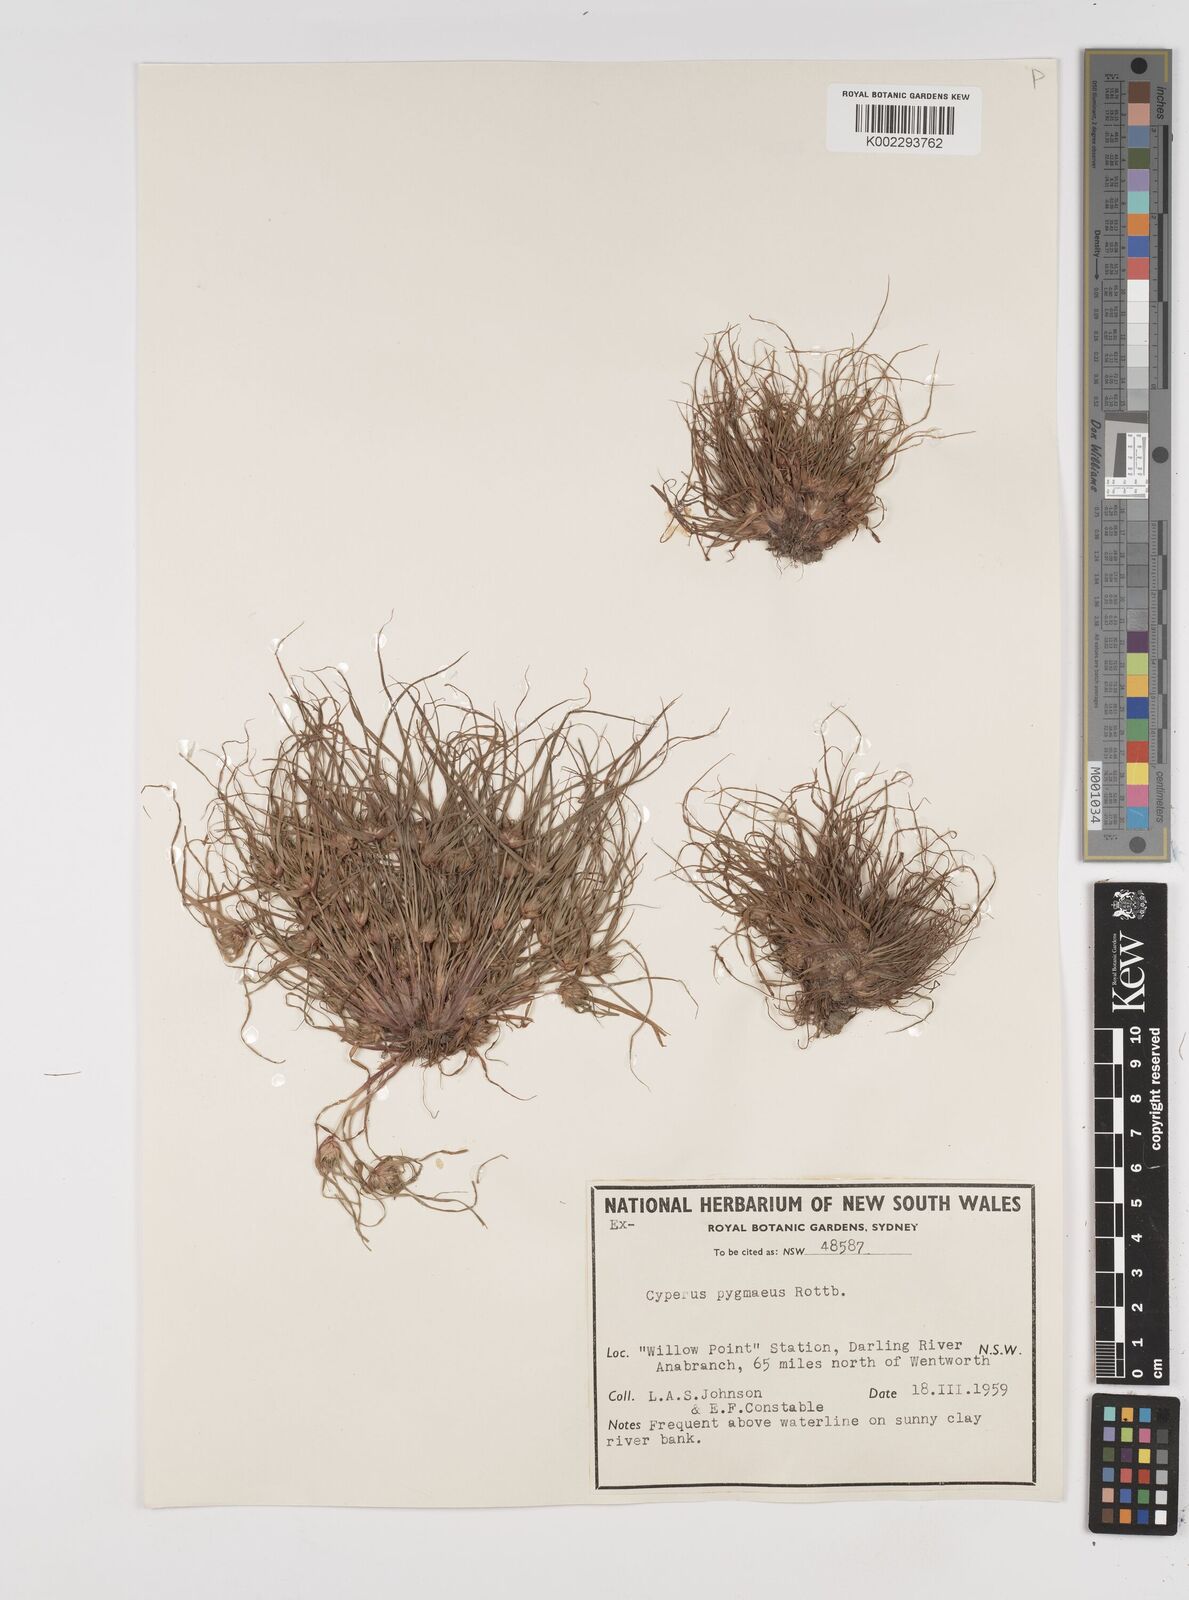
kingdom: Plantae
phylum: Tracheophyta
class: Liliopsida
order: Poales
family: Cyperaceae
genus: Cyperus
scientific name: Cyperus michelianus
